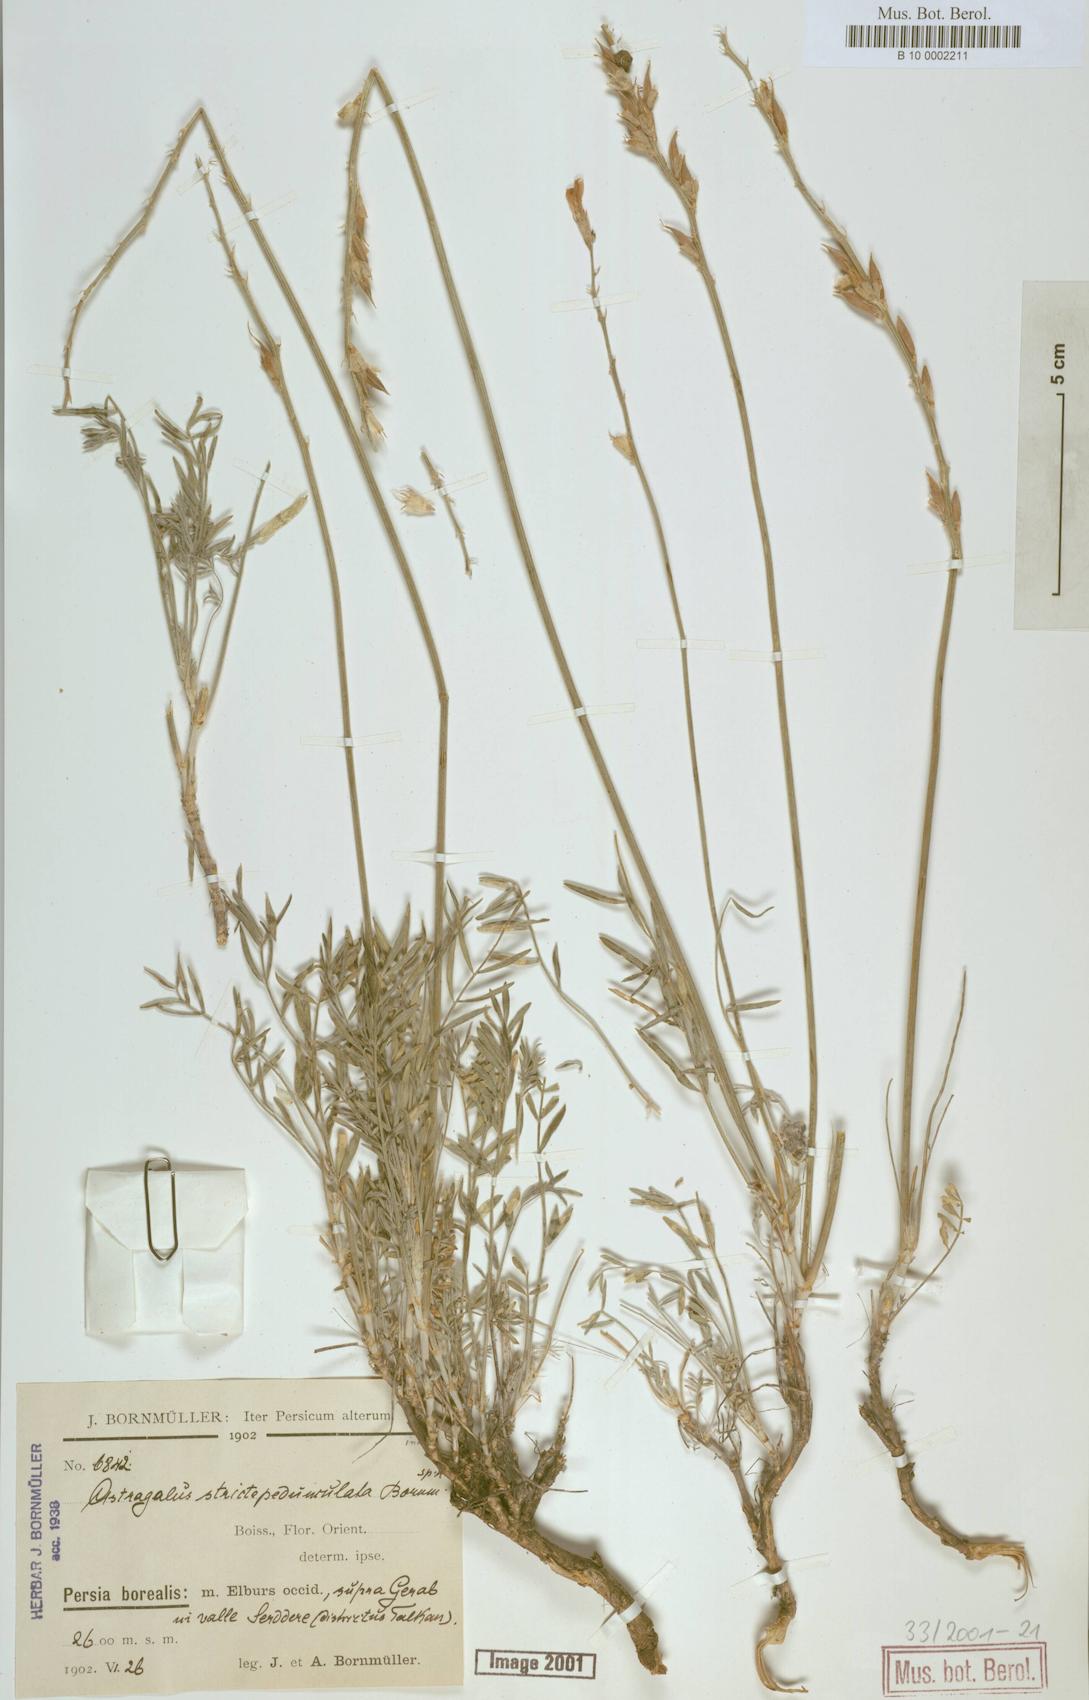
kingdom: Plantae
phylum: Tracheophyta
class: Magnoliopsida
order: Fabales
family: Fabaceae
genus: Astragalus
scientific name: Astragalus lilacinus
